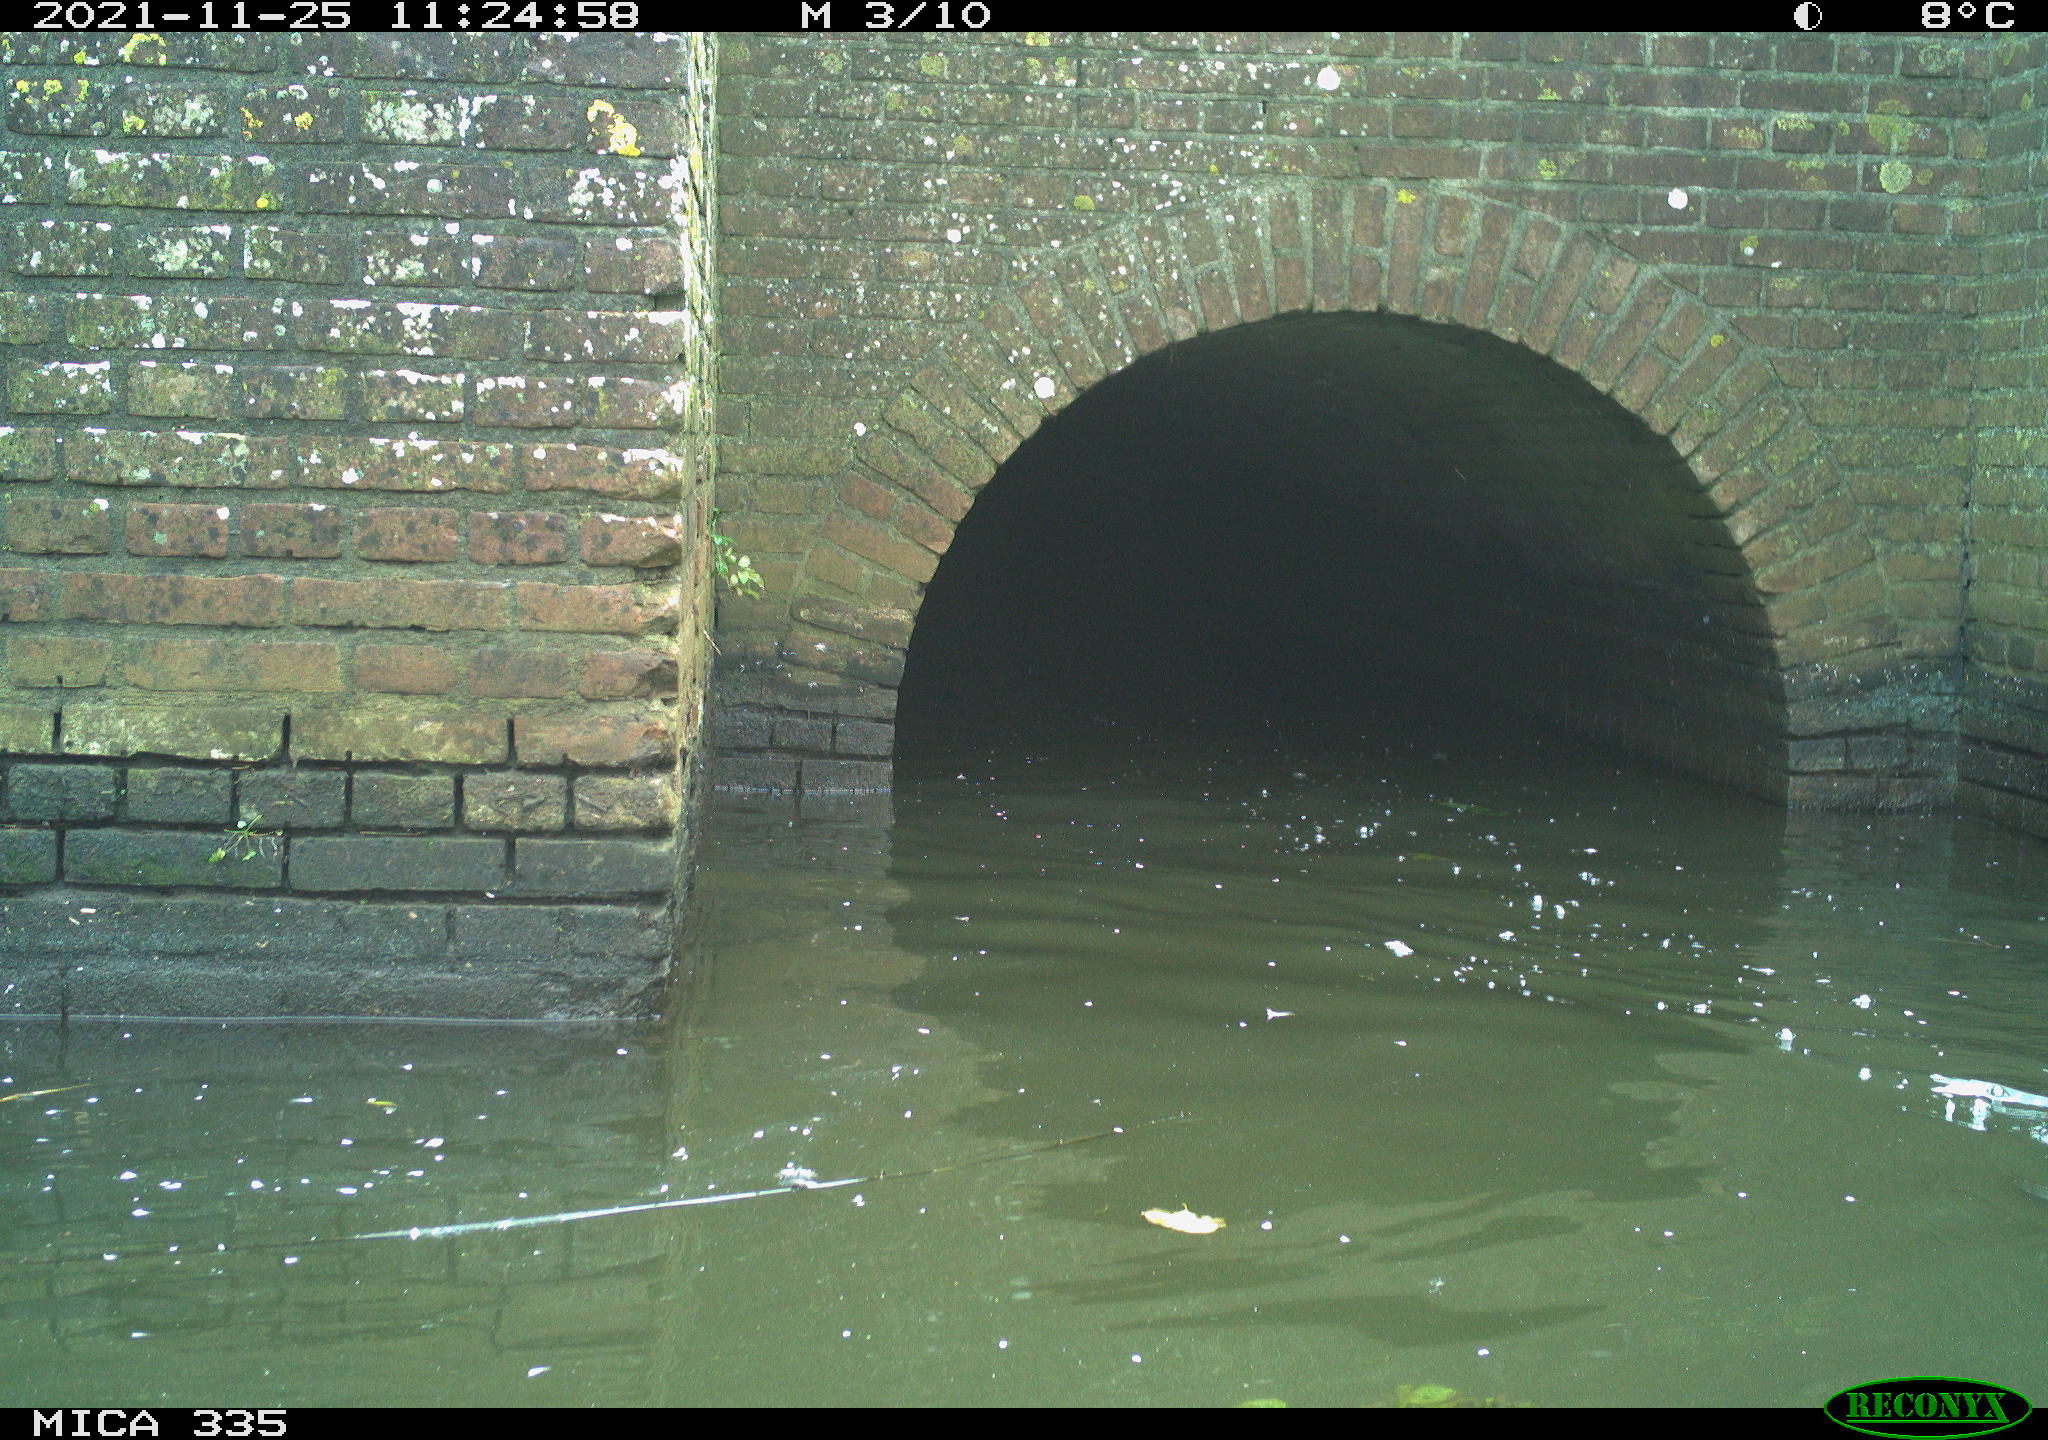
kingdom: Animalia
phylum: Chordata
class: Aves
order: Gruiformes
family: Rallidae
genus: Fulica
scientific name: Fulica atra
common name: Eurasian coot
